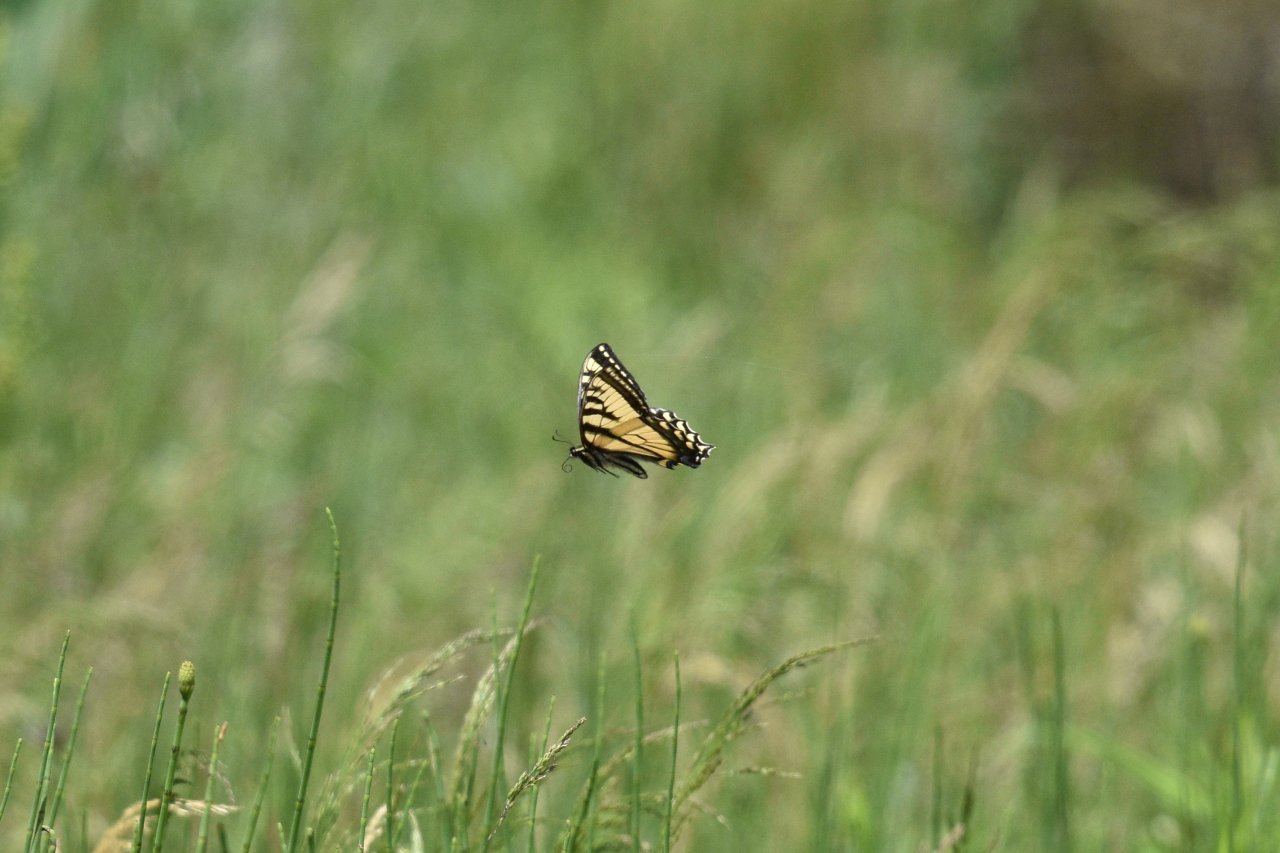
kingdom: Animalia
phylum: Arthropoda
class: Insecta
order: Lepidoptera
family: Papilionidae
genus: Pterourus
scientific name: Pterourus canadensis
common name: Canadian Tiger Swallowtail
